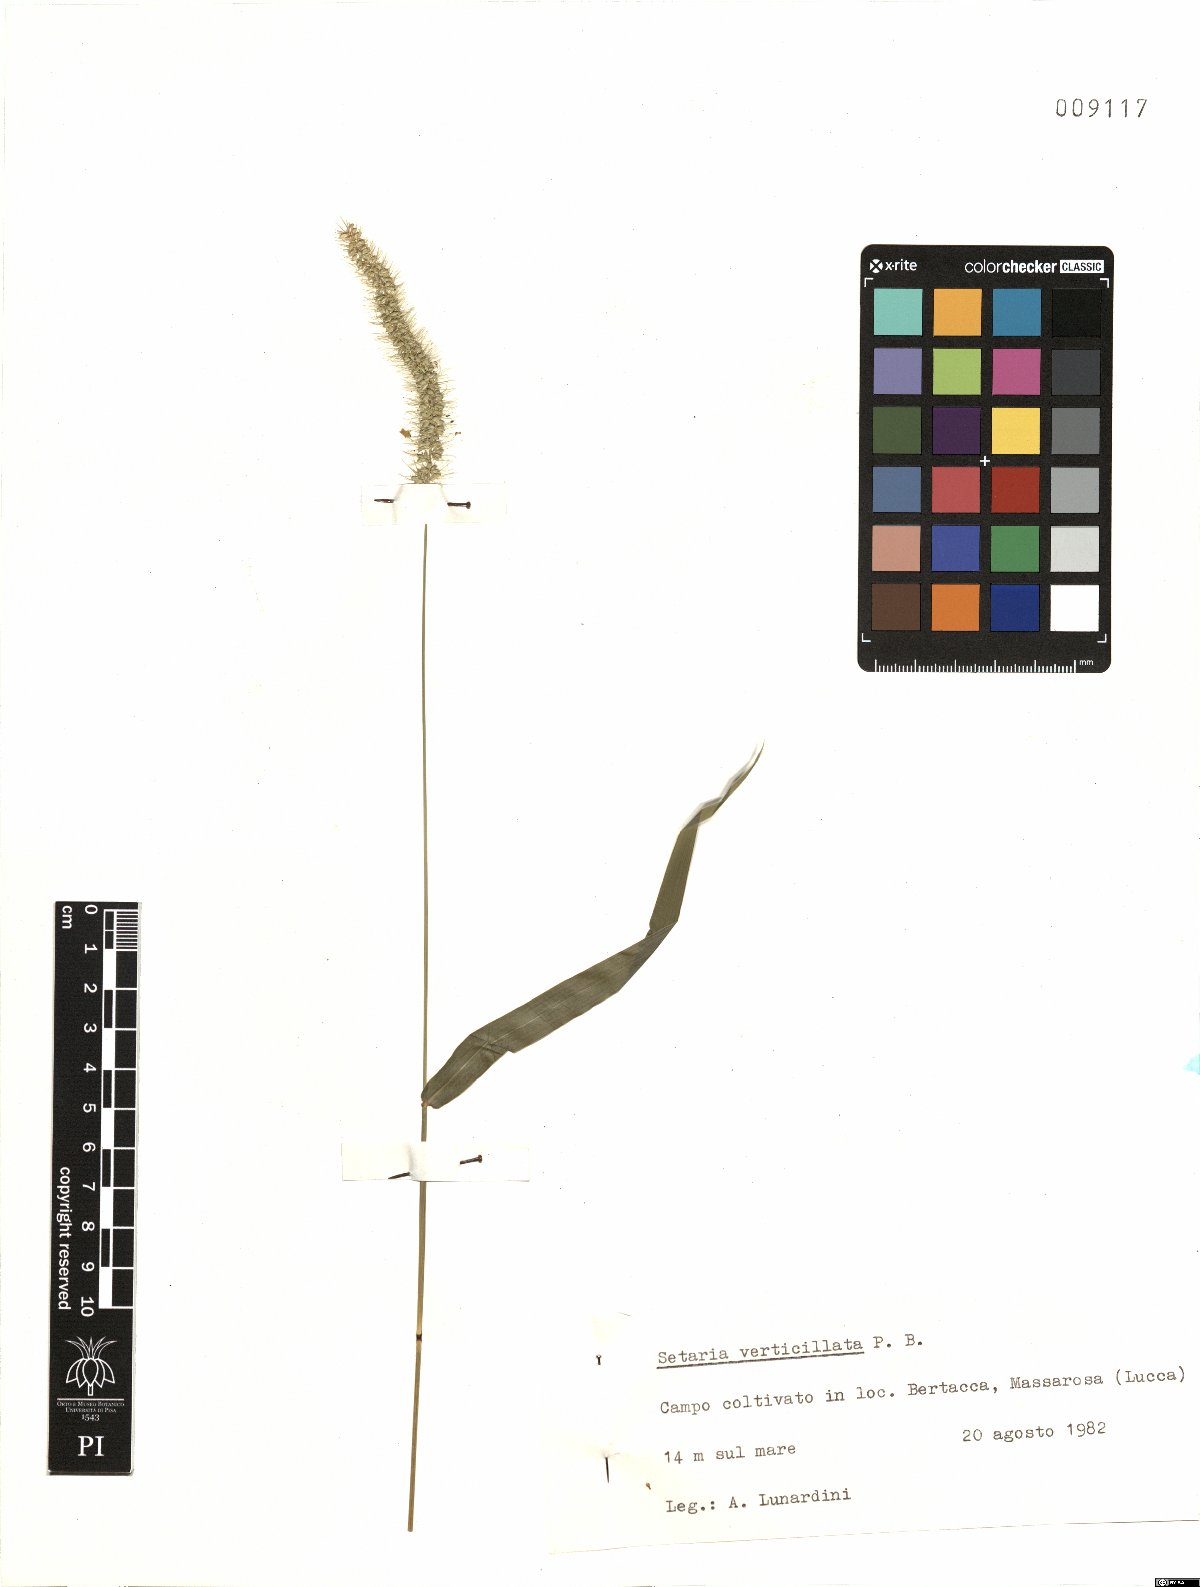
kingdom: Plantae
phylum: Tracheophyta
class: Liliopsida
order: Poales
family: Poaceae
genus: Setaria
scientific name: Setaria verticillata
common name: Hooked bristlegrass
